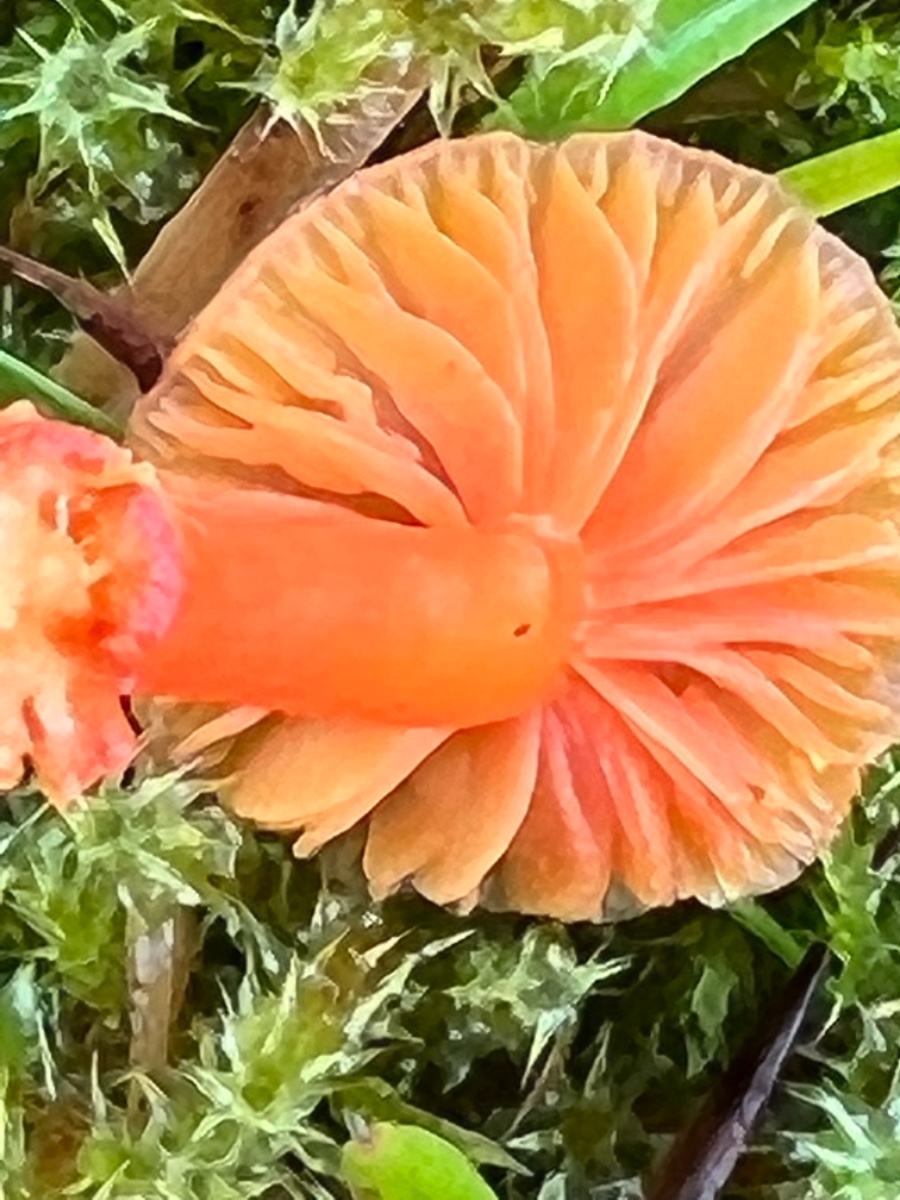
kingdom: Fungi
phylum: Basidiomycota
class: Agaricomycetes
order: Agaricales
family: Hygrophoraceae
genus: Hygrocybe
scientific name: Hygrocybe mucronella
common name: bitter vokshat
